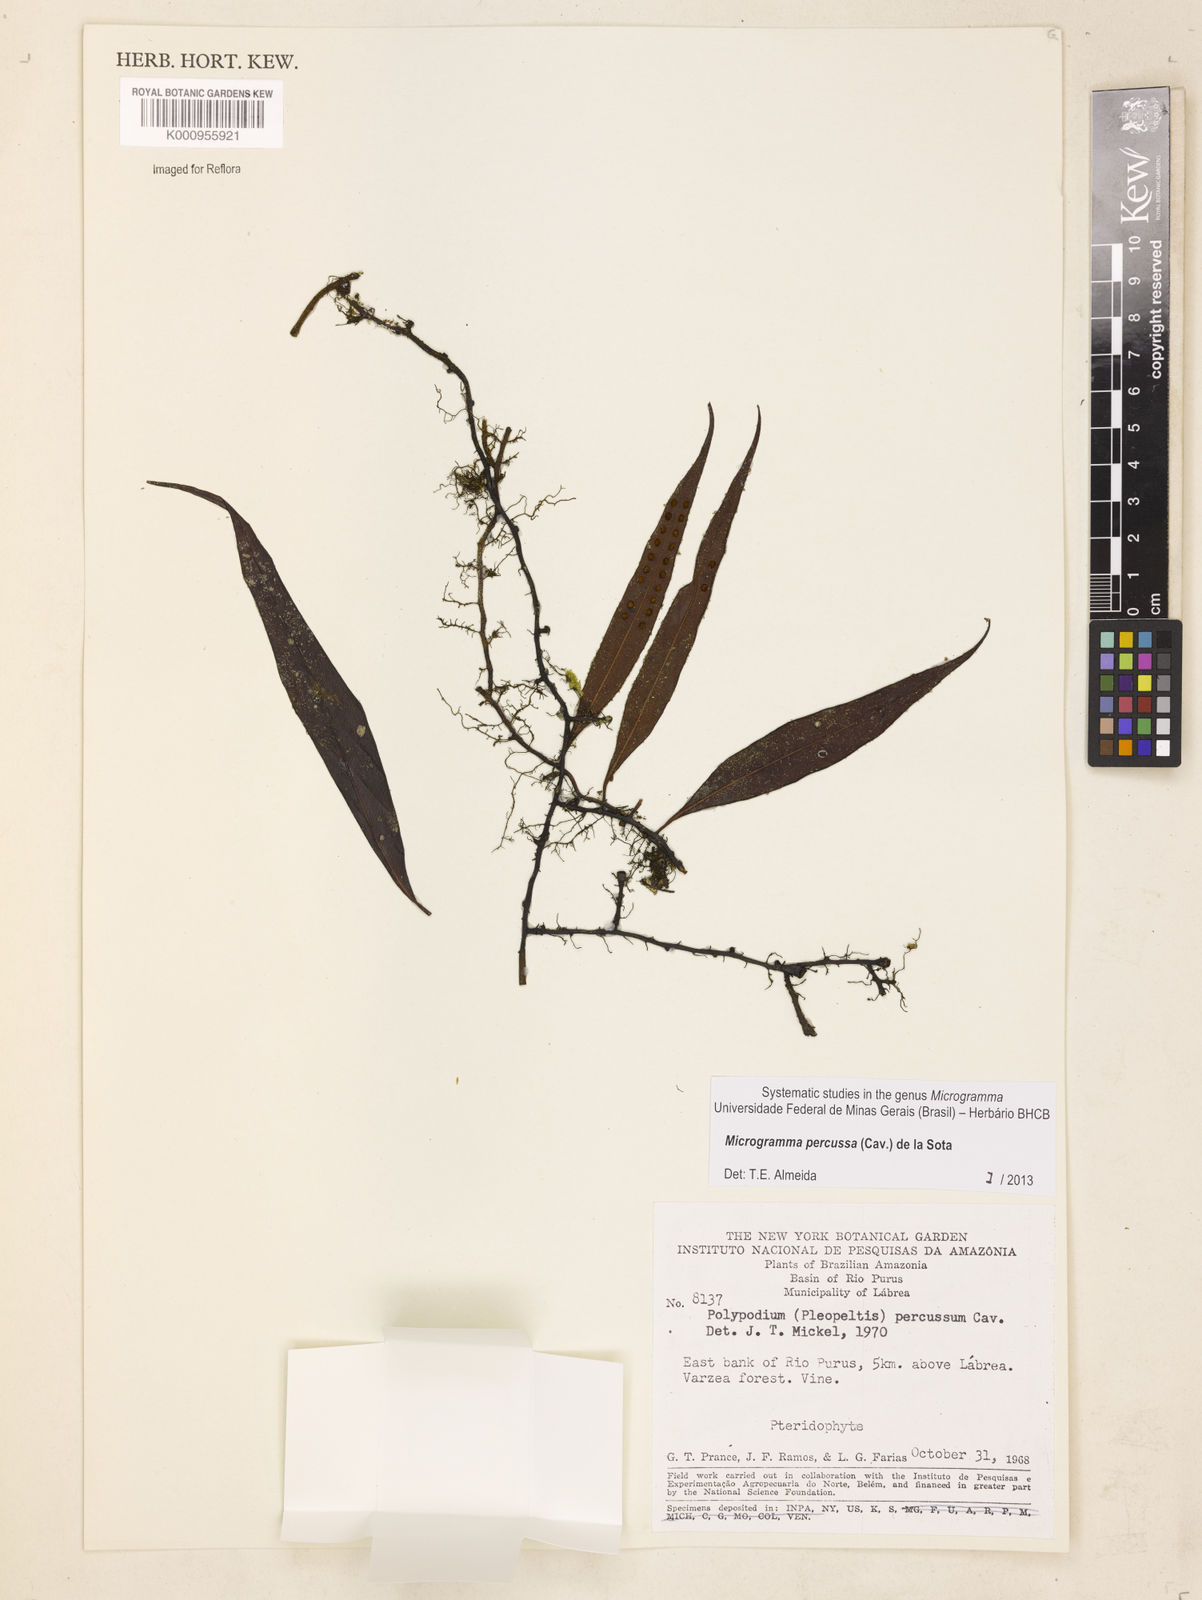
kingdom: Plantae
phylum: Tracheophyta
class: Polypodiopsida
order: Polypodiales
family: Polypodiaceae
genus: Microgramma
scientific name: Microgramma percussa
